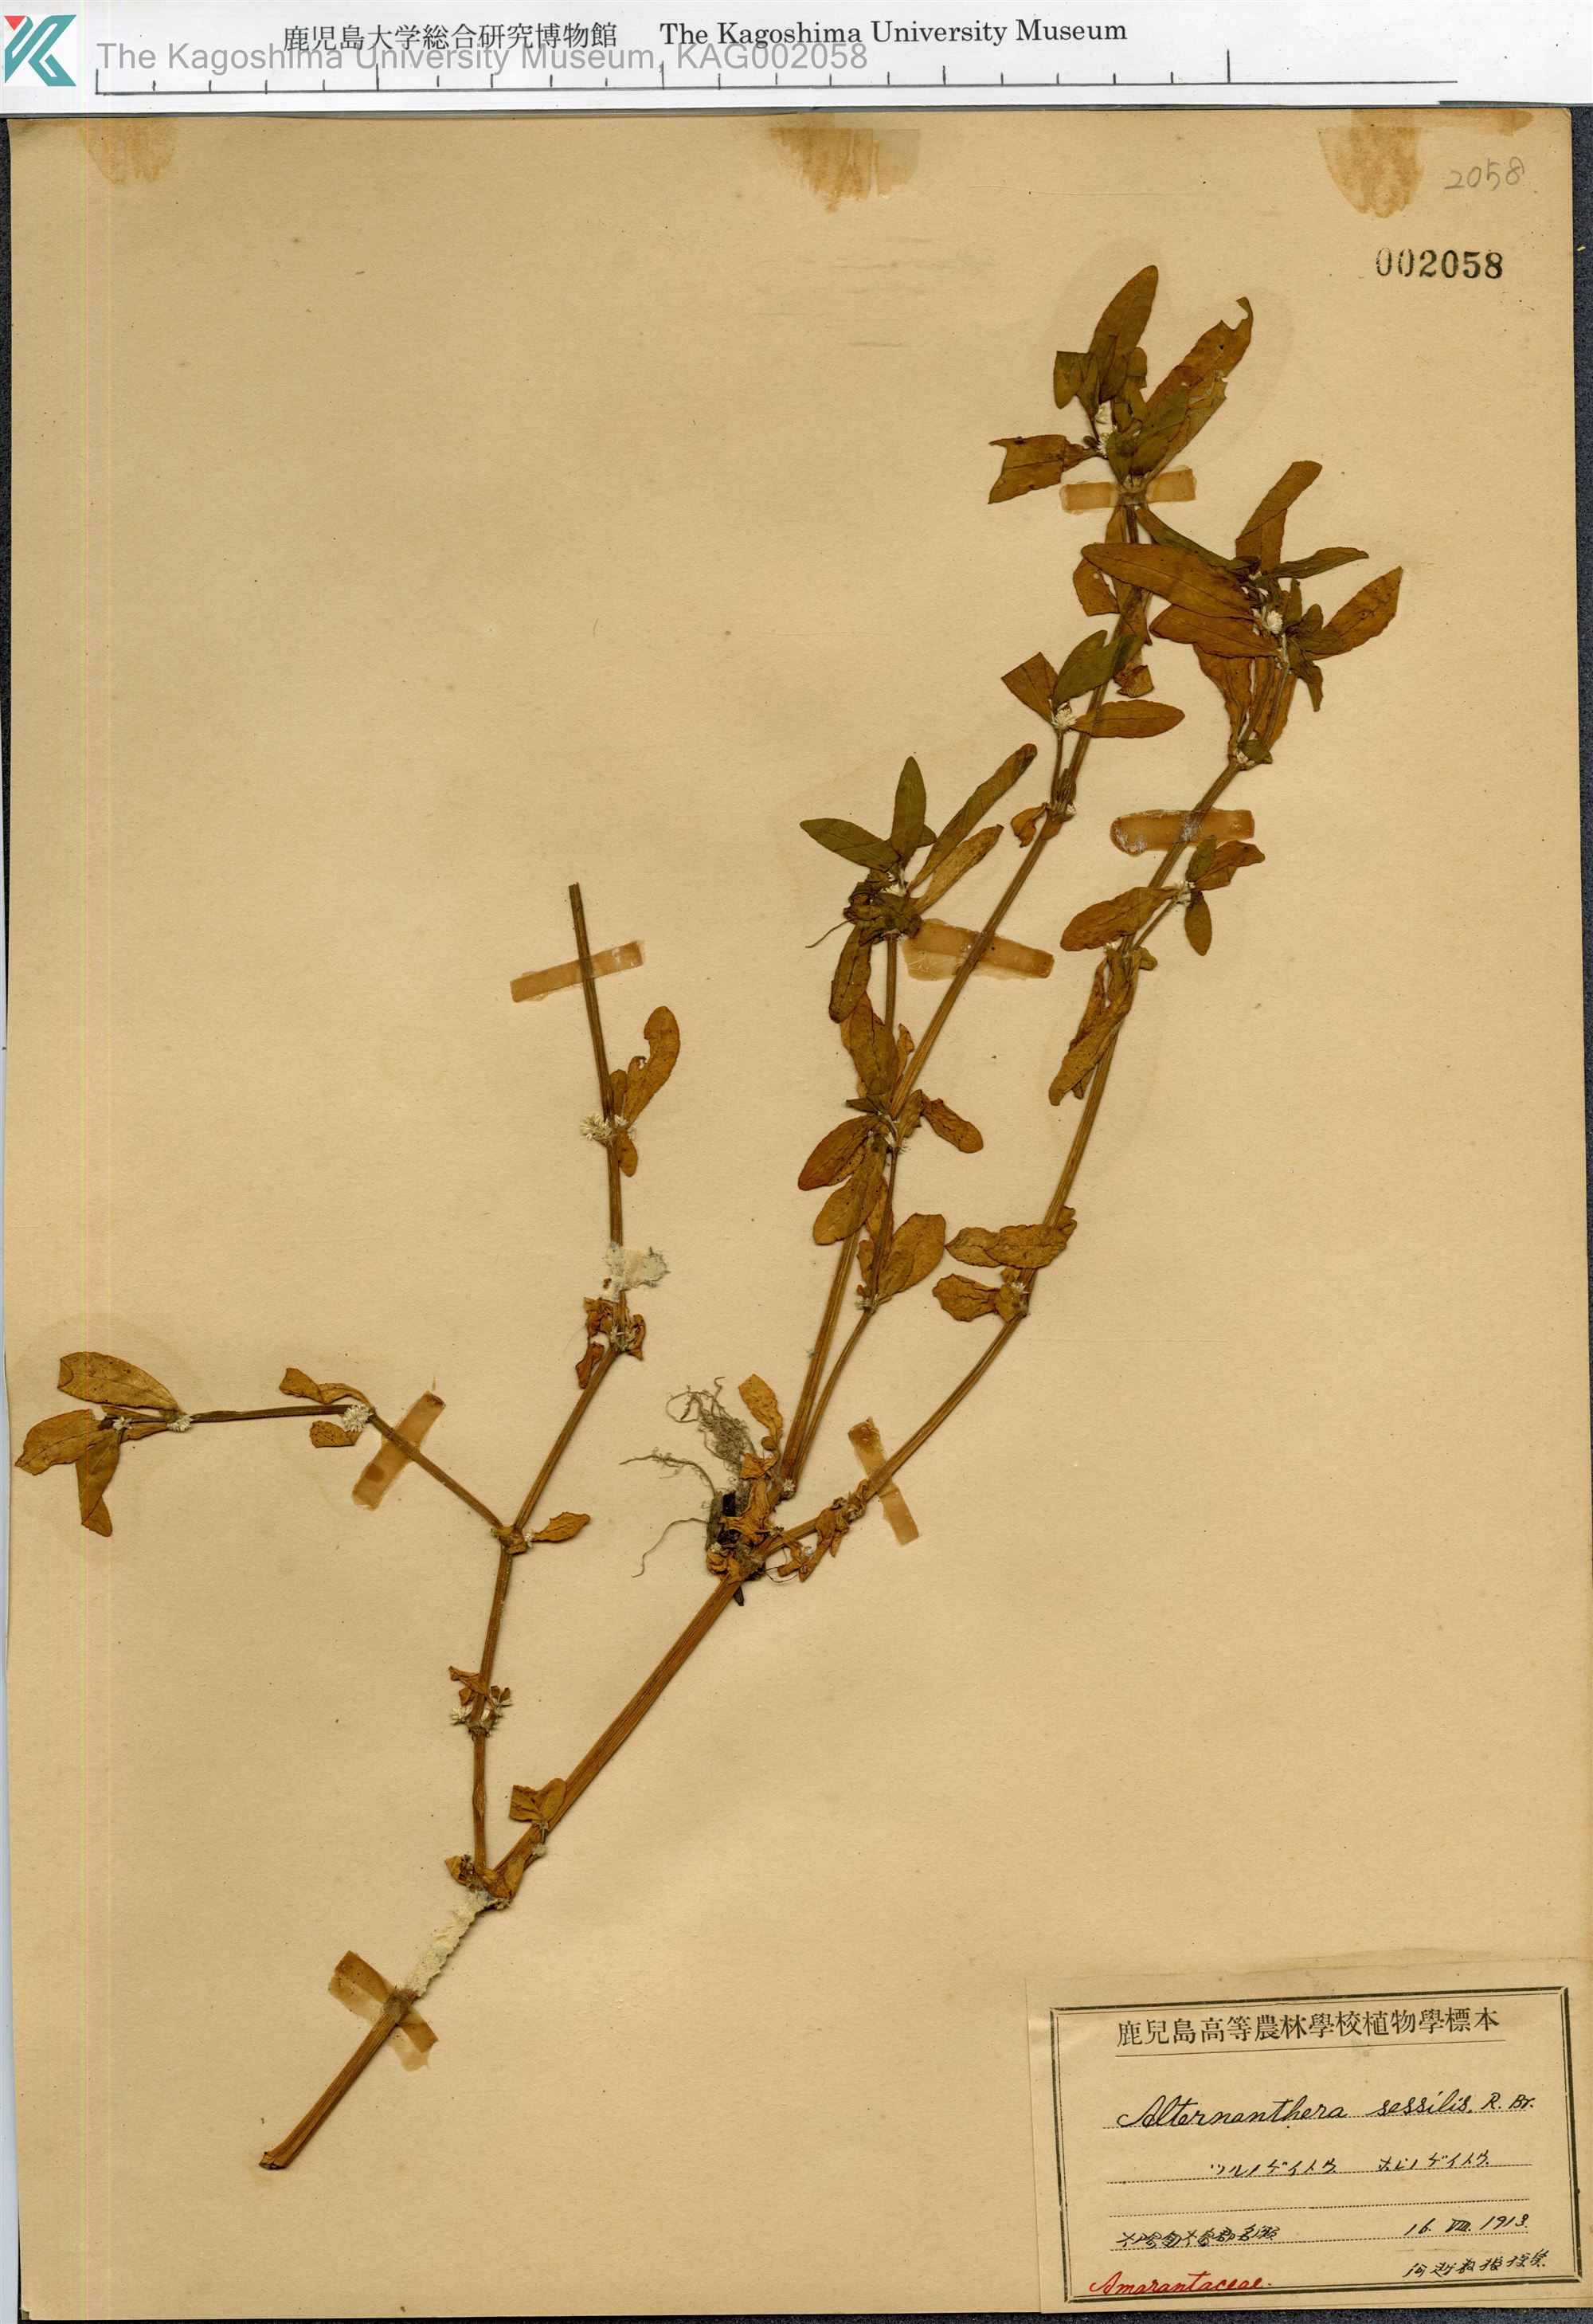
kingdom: Plantae
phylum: Tracheophyta
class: Magnoliopsida
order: Caryophyllales
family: Amaranthaceae
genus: Alternanthera
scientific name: Alternanthera sessilis
